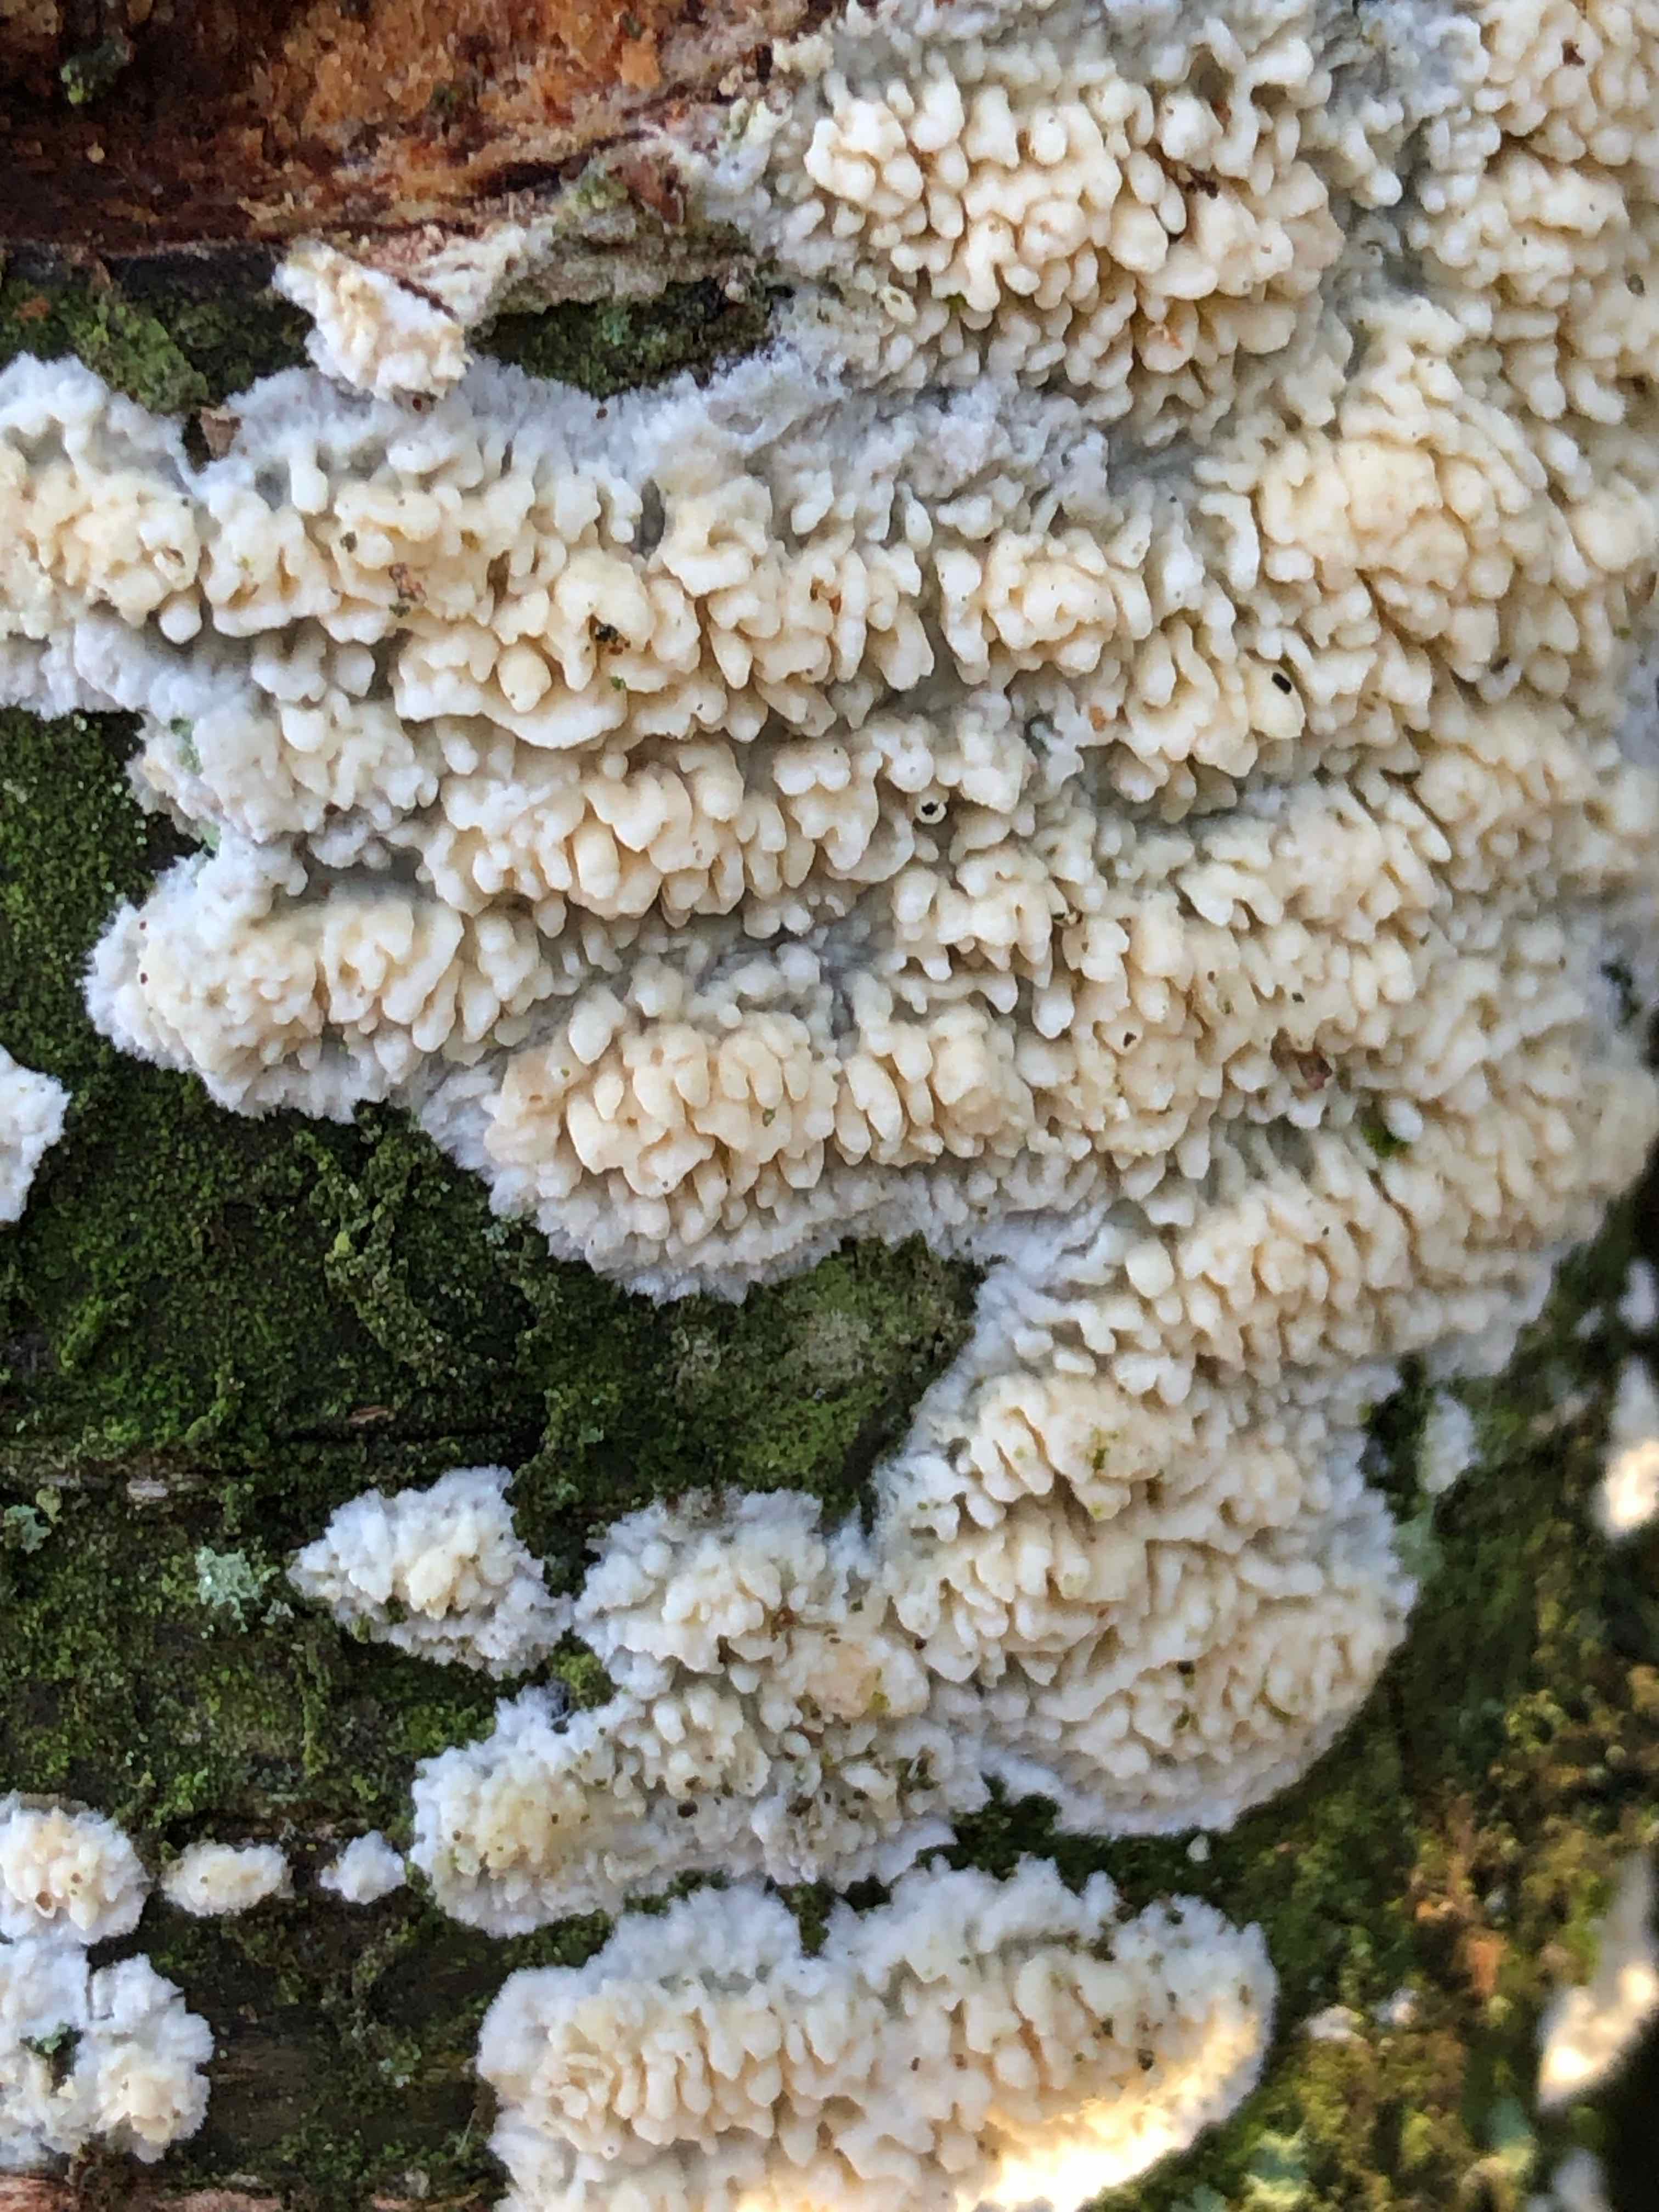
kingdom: Fungi
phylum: Basidiomycota
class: Agaricomycetes
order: Hymenochaetales
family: Schizoporaceae
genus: Xylodon
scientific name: Xylodon radula
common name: grovtandet kalkskind
